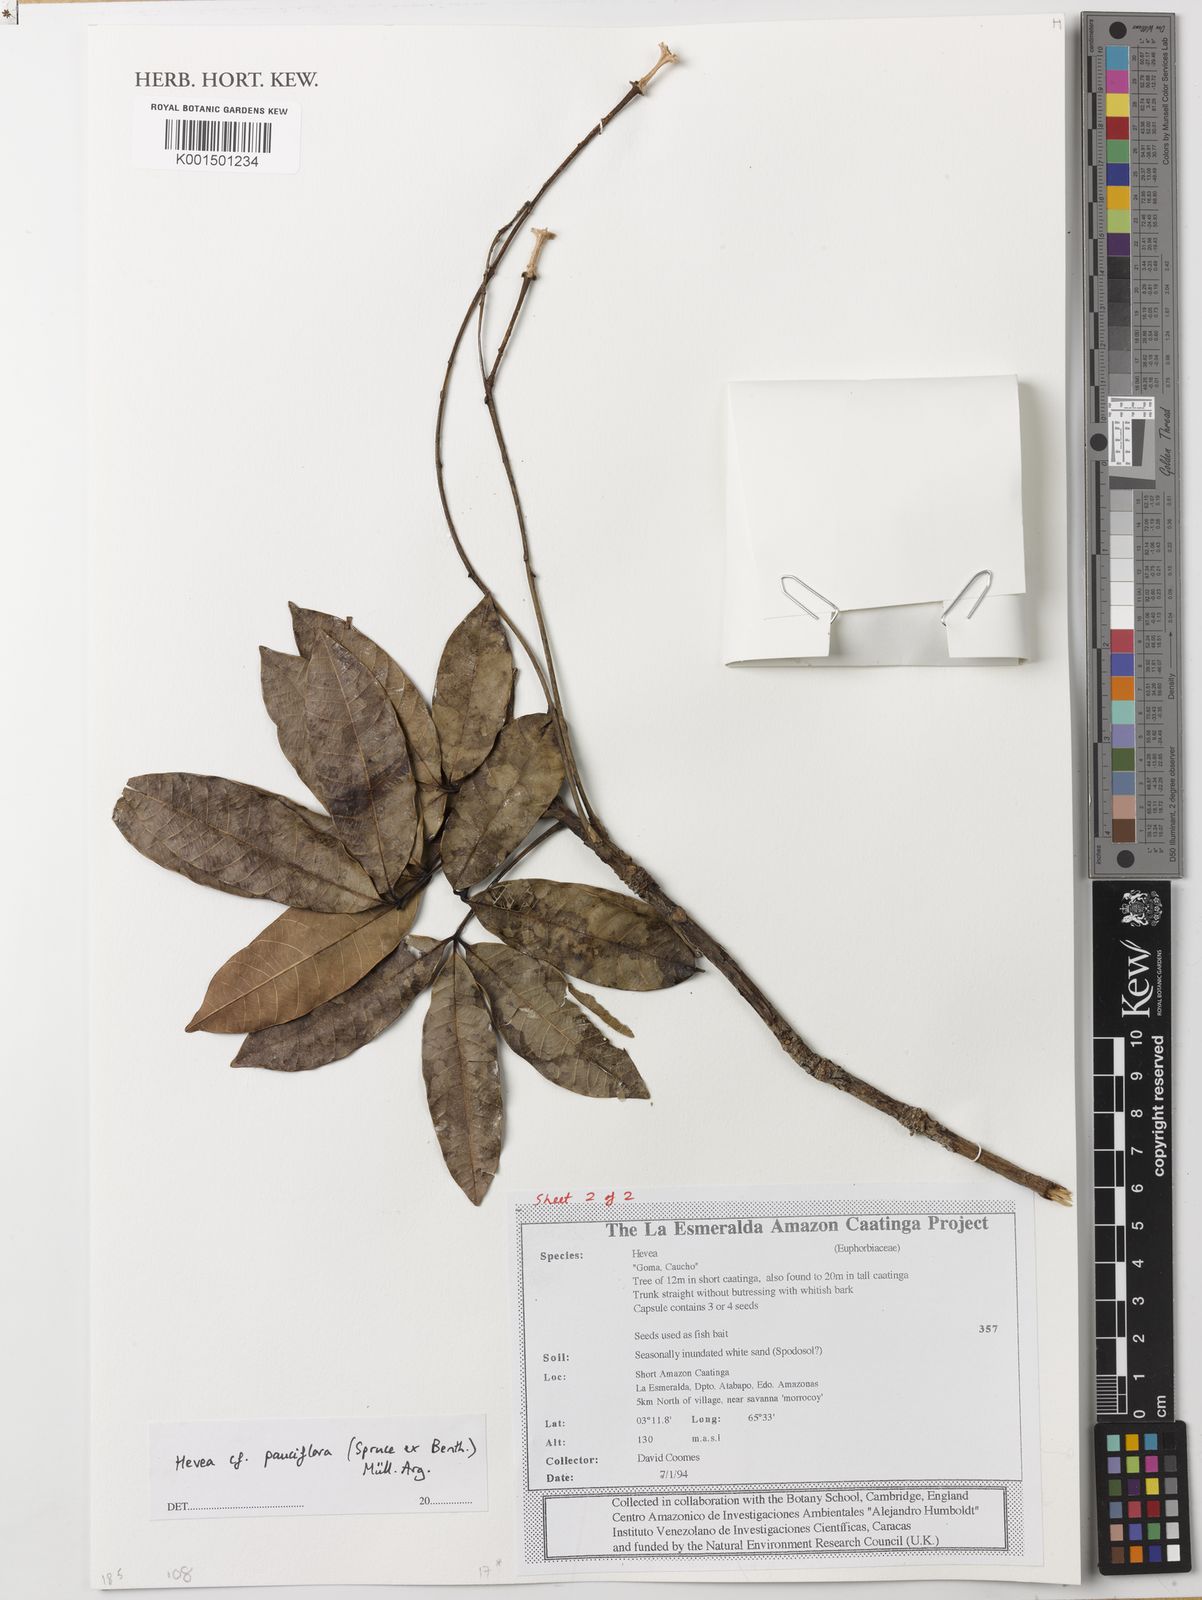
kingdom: Plantae
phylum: Tracheophyta
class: Magnoliopsida
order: Malpighiales
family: Euphorbiaceae
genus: Hevea
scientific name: Hevea pauciflora
